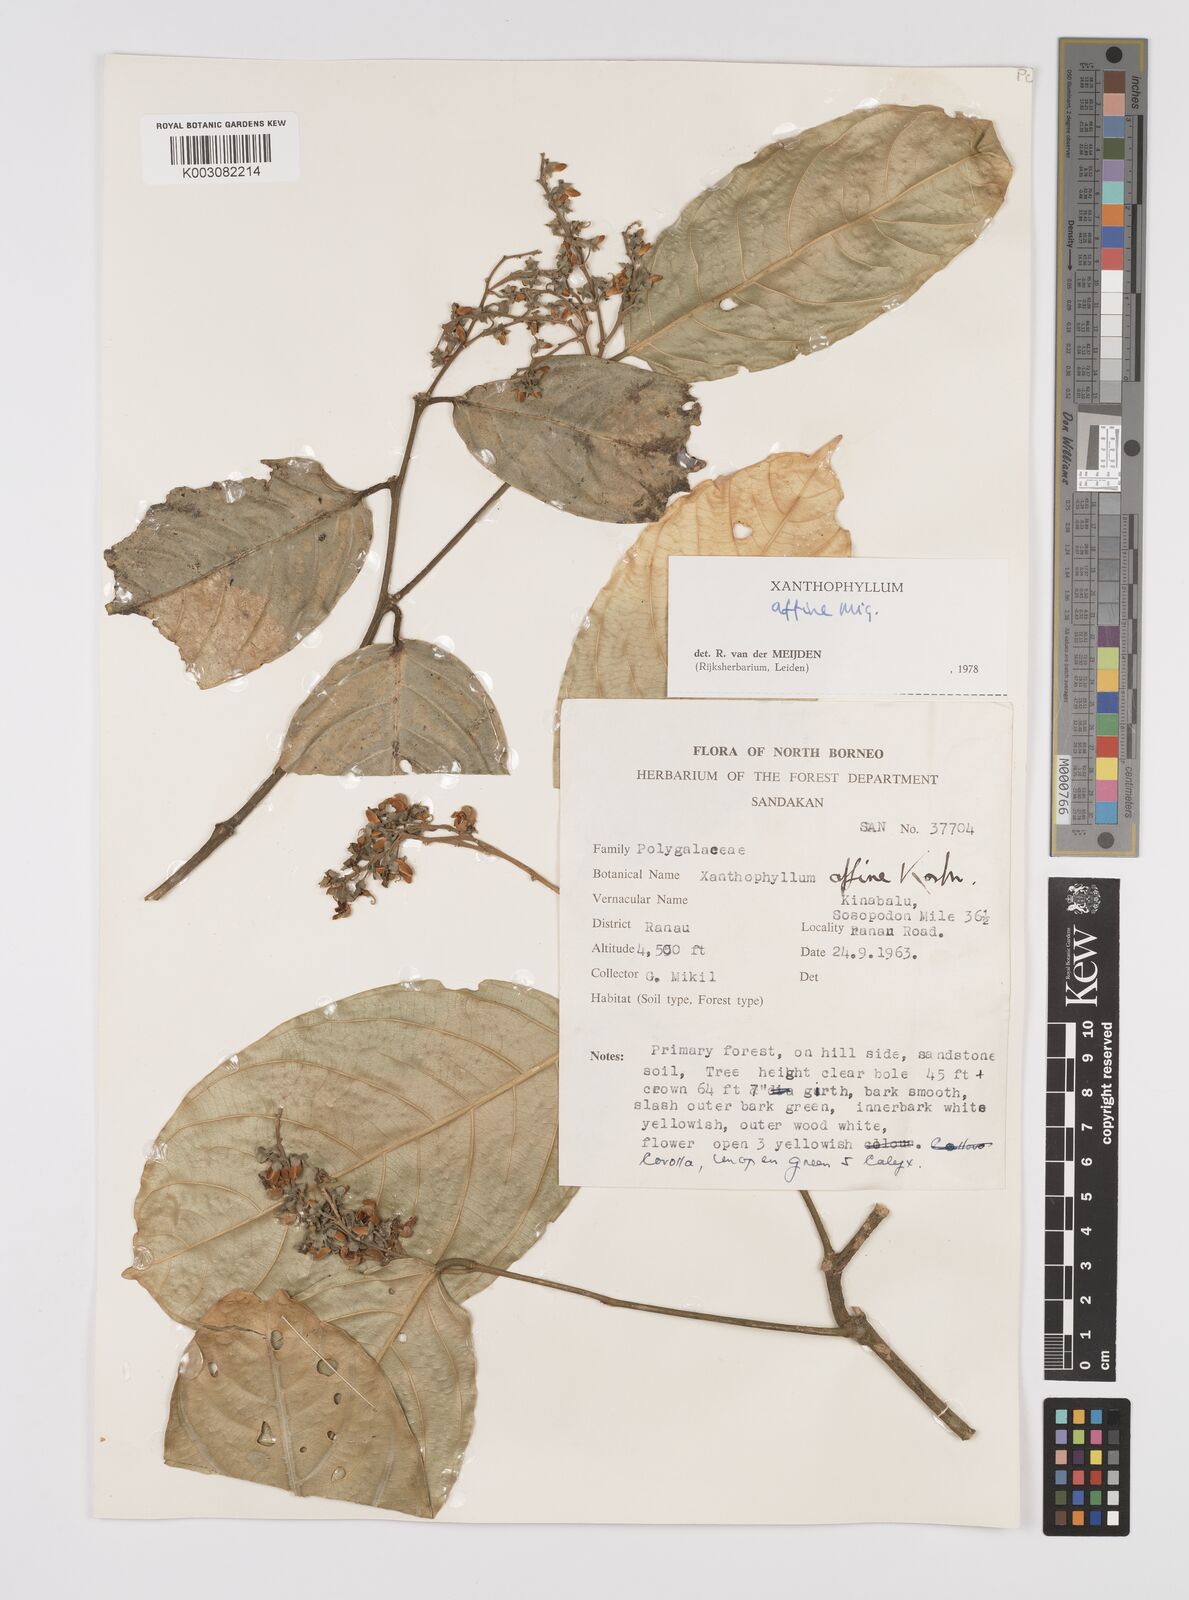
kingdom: Plantae
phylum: Tracheophyta
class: Magnoliopsida
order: Fabales
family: Polygalaceae
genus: Xanthophyllum
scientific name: Xanthophyllum flavescens
